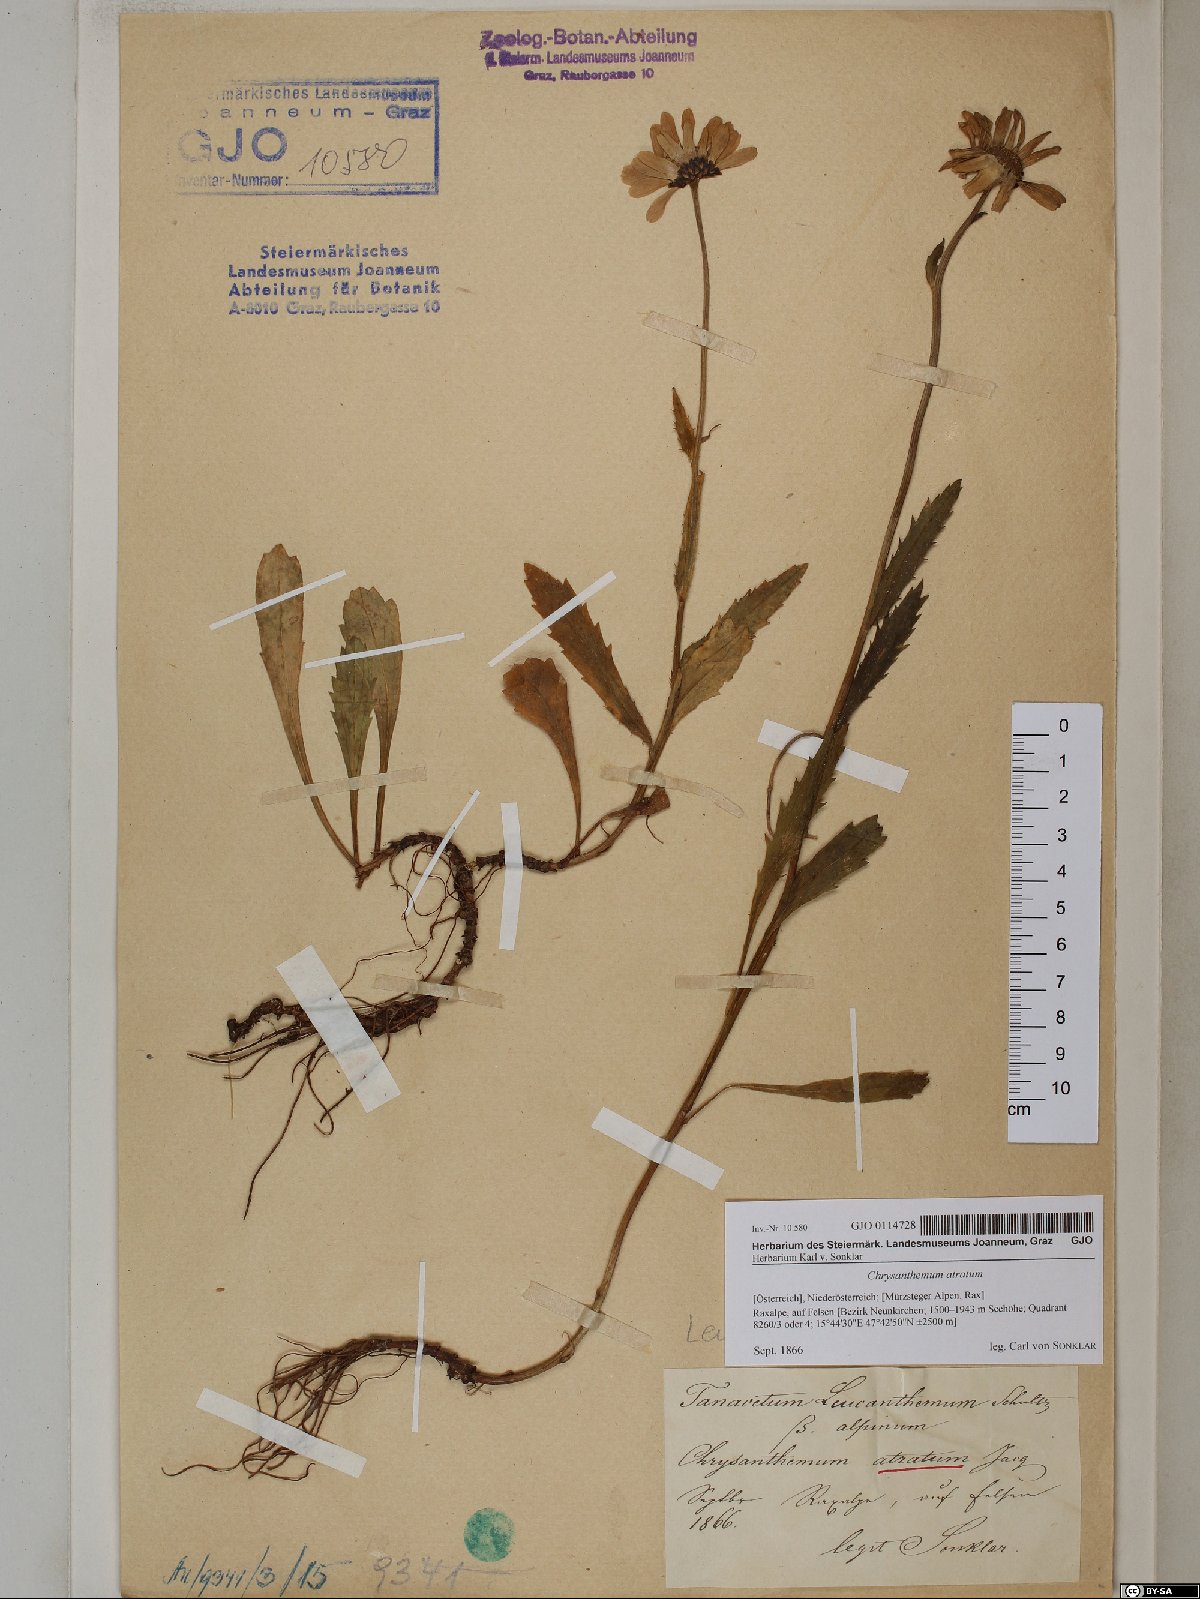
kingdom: Plantae
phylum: Tracheophyta
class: Magnoliopsida
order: Asterales
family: Asteraceae
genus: Leucanthemum
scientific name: Leucanthemum atratum
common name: Saw-leaved moon-daisy
